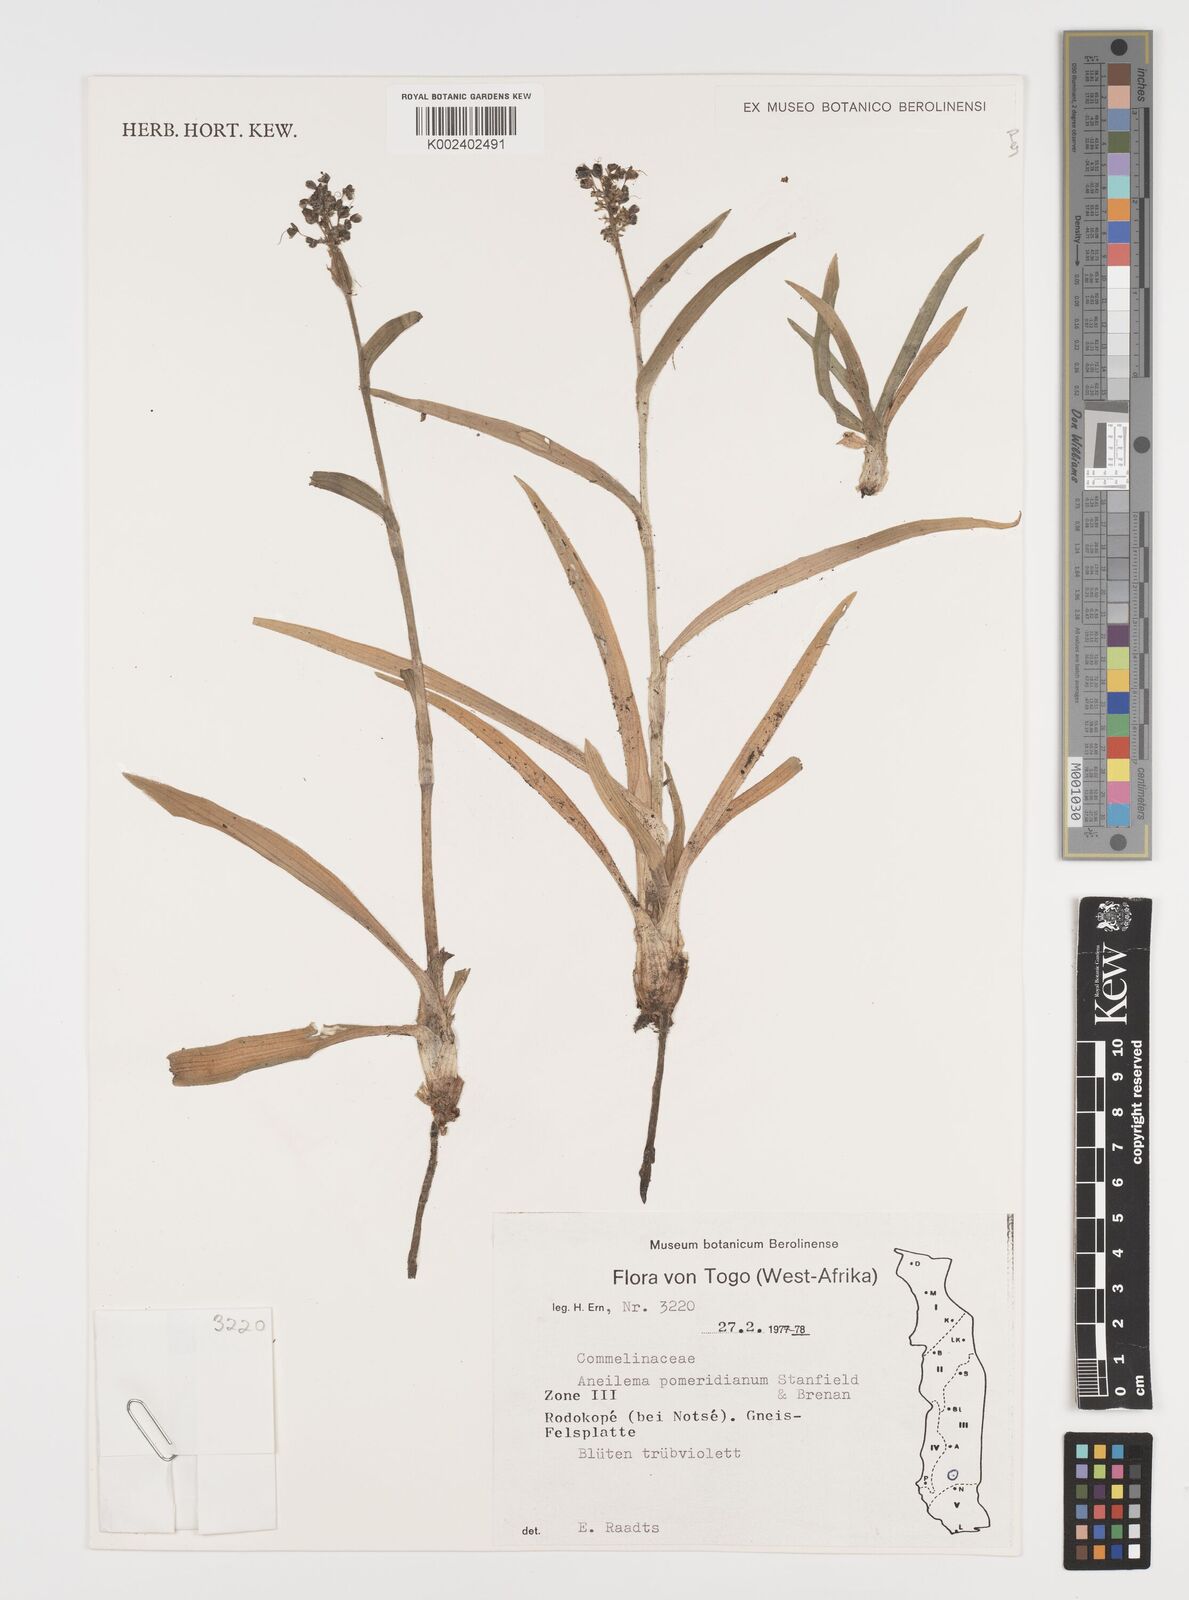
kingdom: Plantae
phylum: Tracheophyta
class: Liliopsida
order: Commelinales
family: Commelinaceae
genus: Aneilema
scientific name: Aneilema pomeridianum
